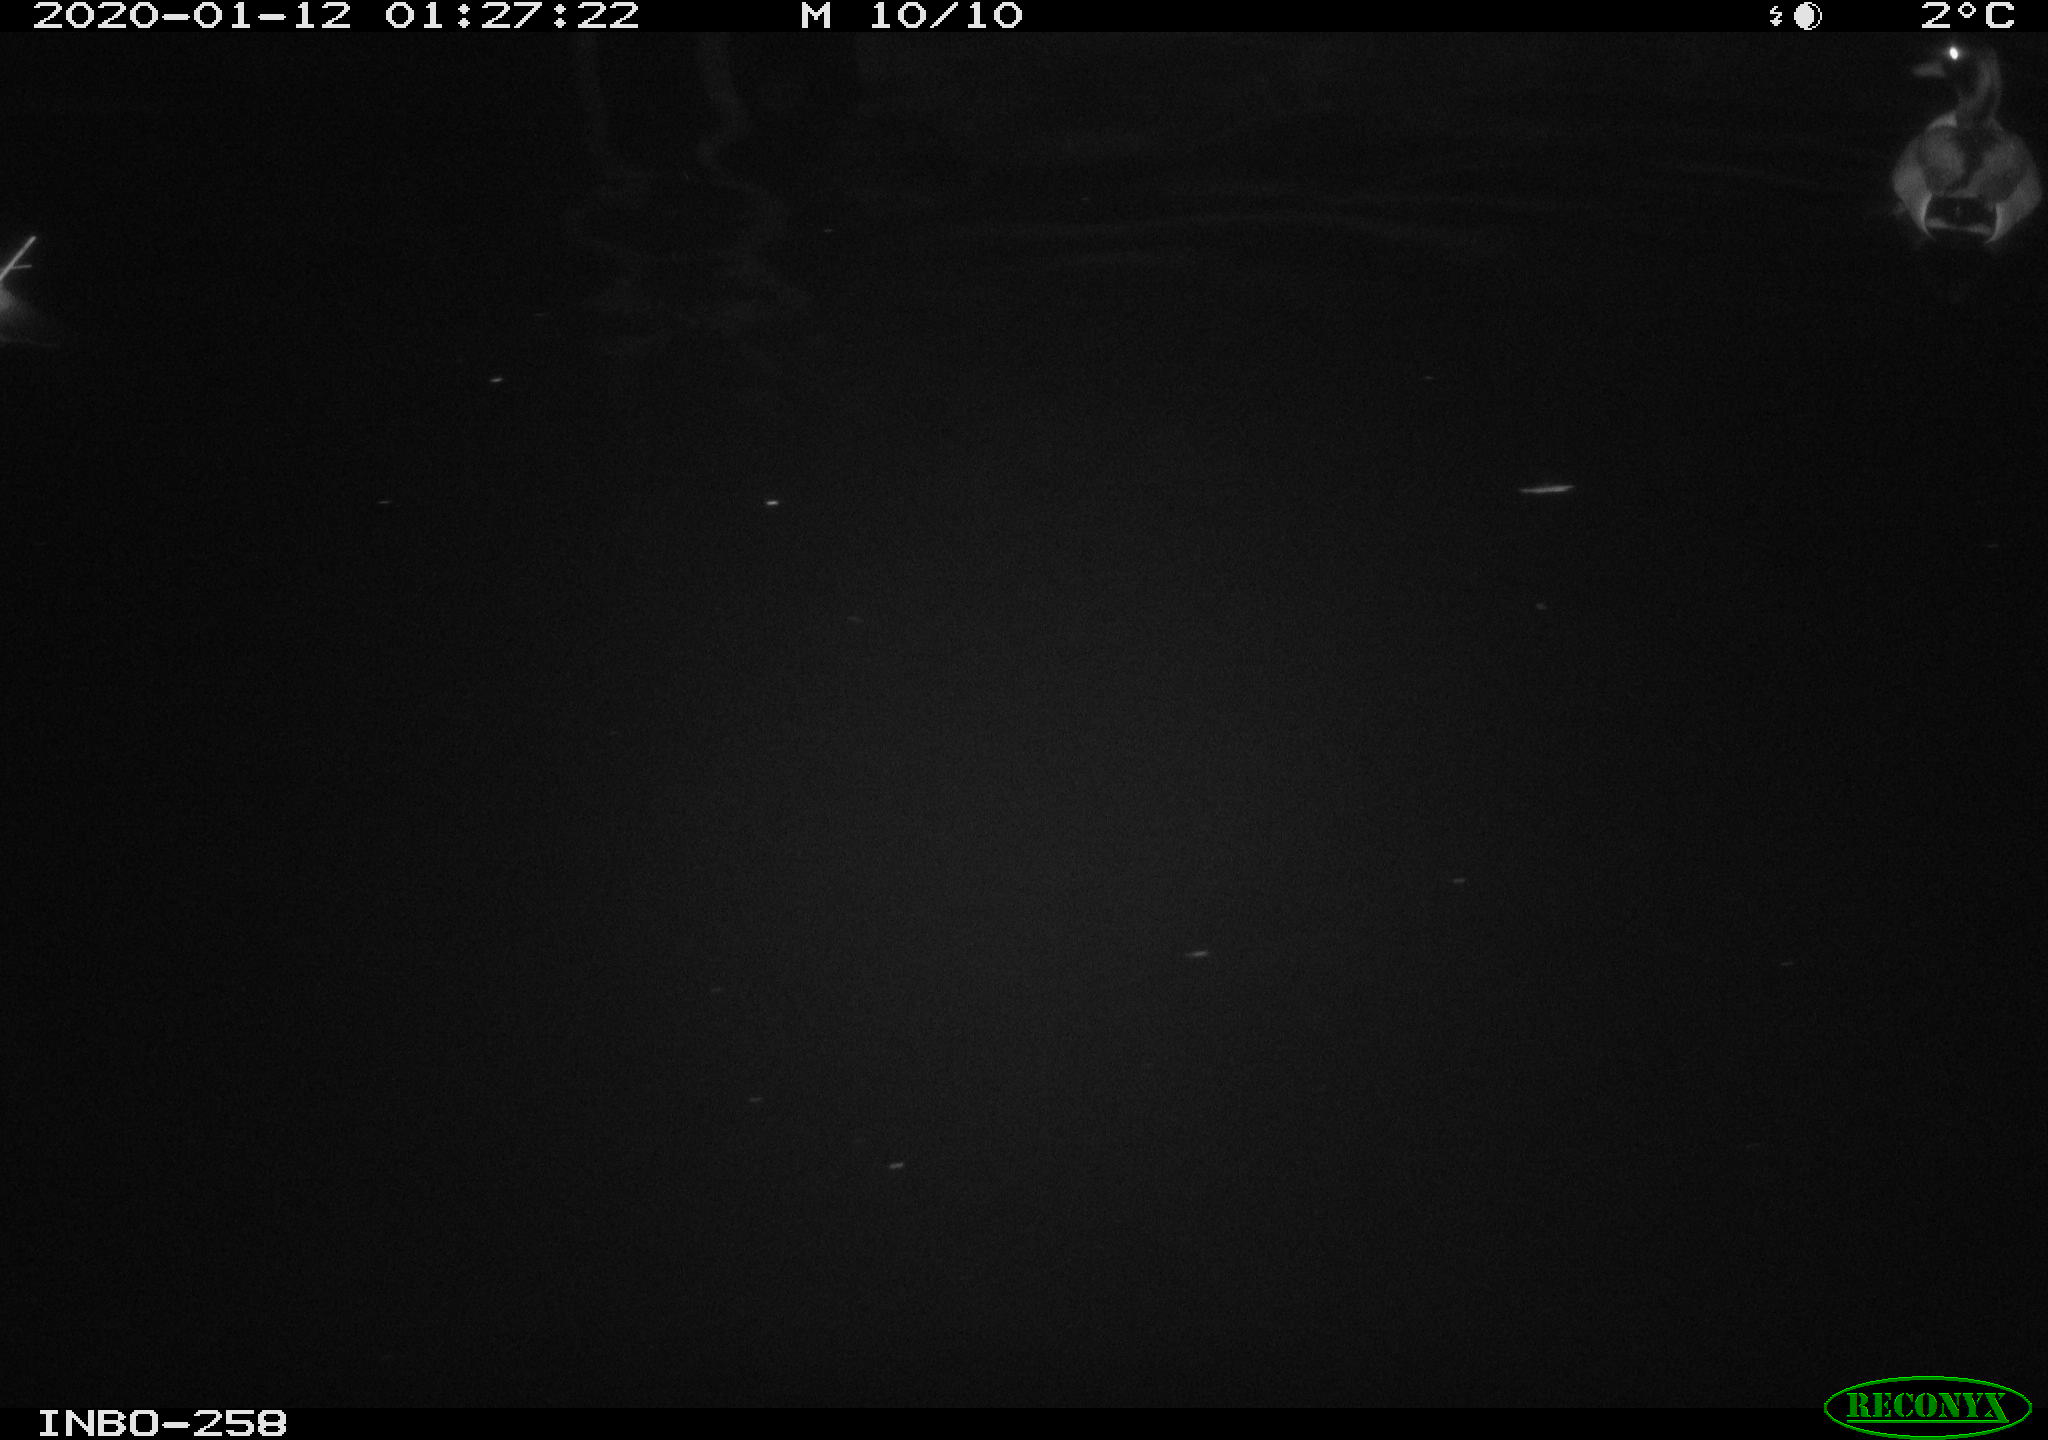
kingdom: Animalia
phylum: Chordata
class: Aves
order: Anseriformes
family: Anatidae
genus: Anas
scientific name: Anas platyrhynchos
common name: Mallard
